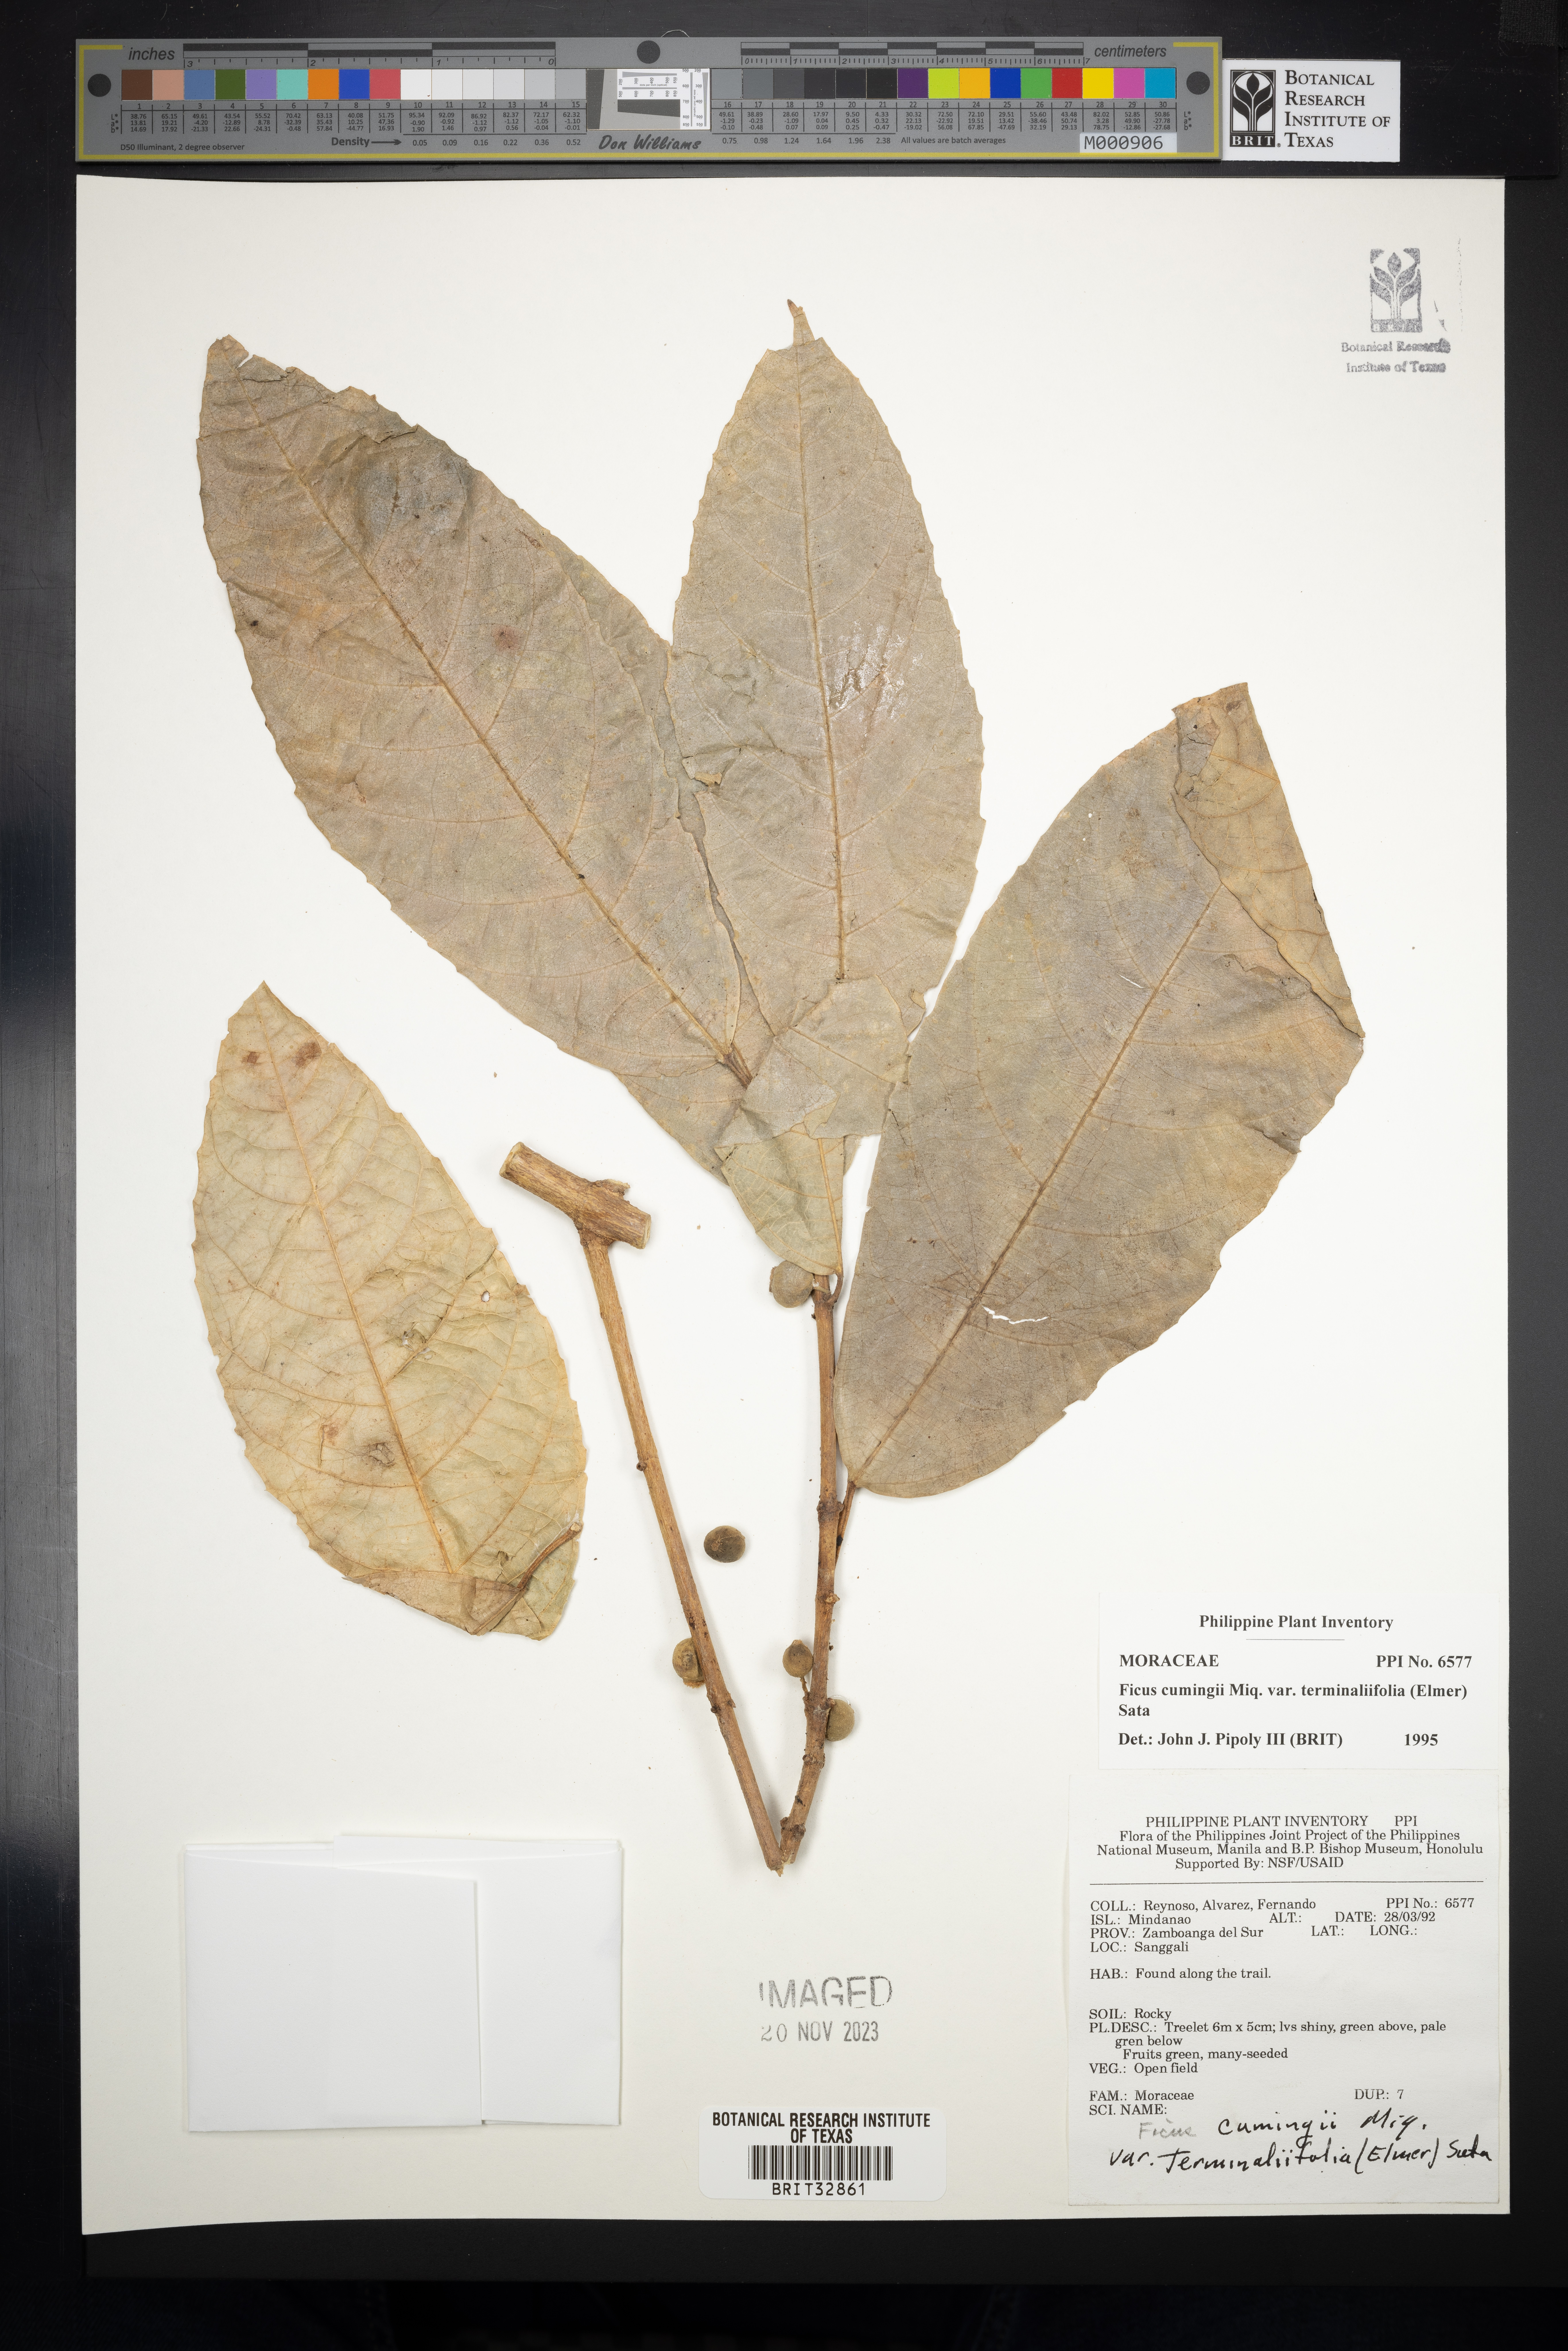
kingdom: Plantae
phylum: Tracheophyta
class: Magnoliopsida
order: Rosales
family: Moraceae
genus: Ficus
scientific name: Ficus cumingii
